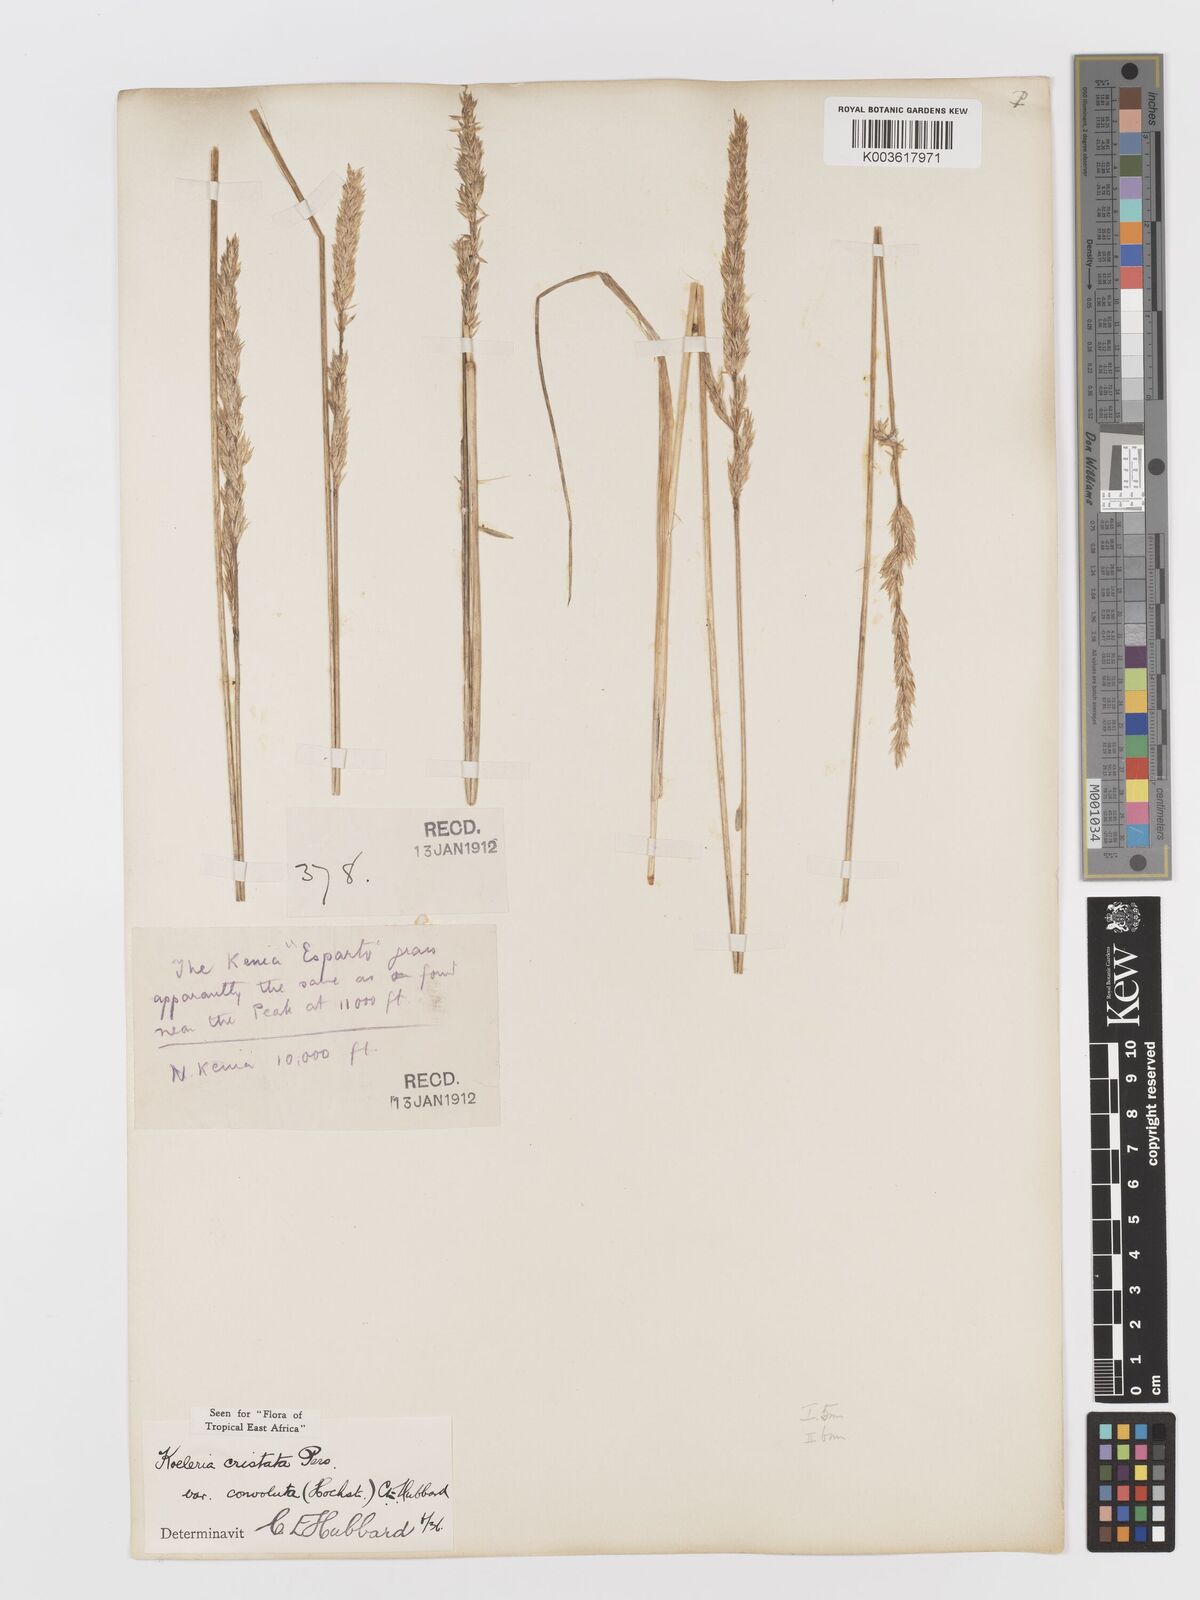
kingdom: Plantae
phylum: Tracheophyta
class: Liliopsida
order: Poales
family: Poaceae
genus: Koeleria
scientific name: Koeleria capensis
